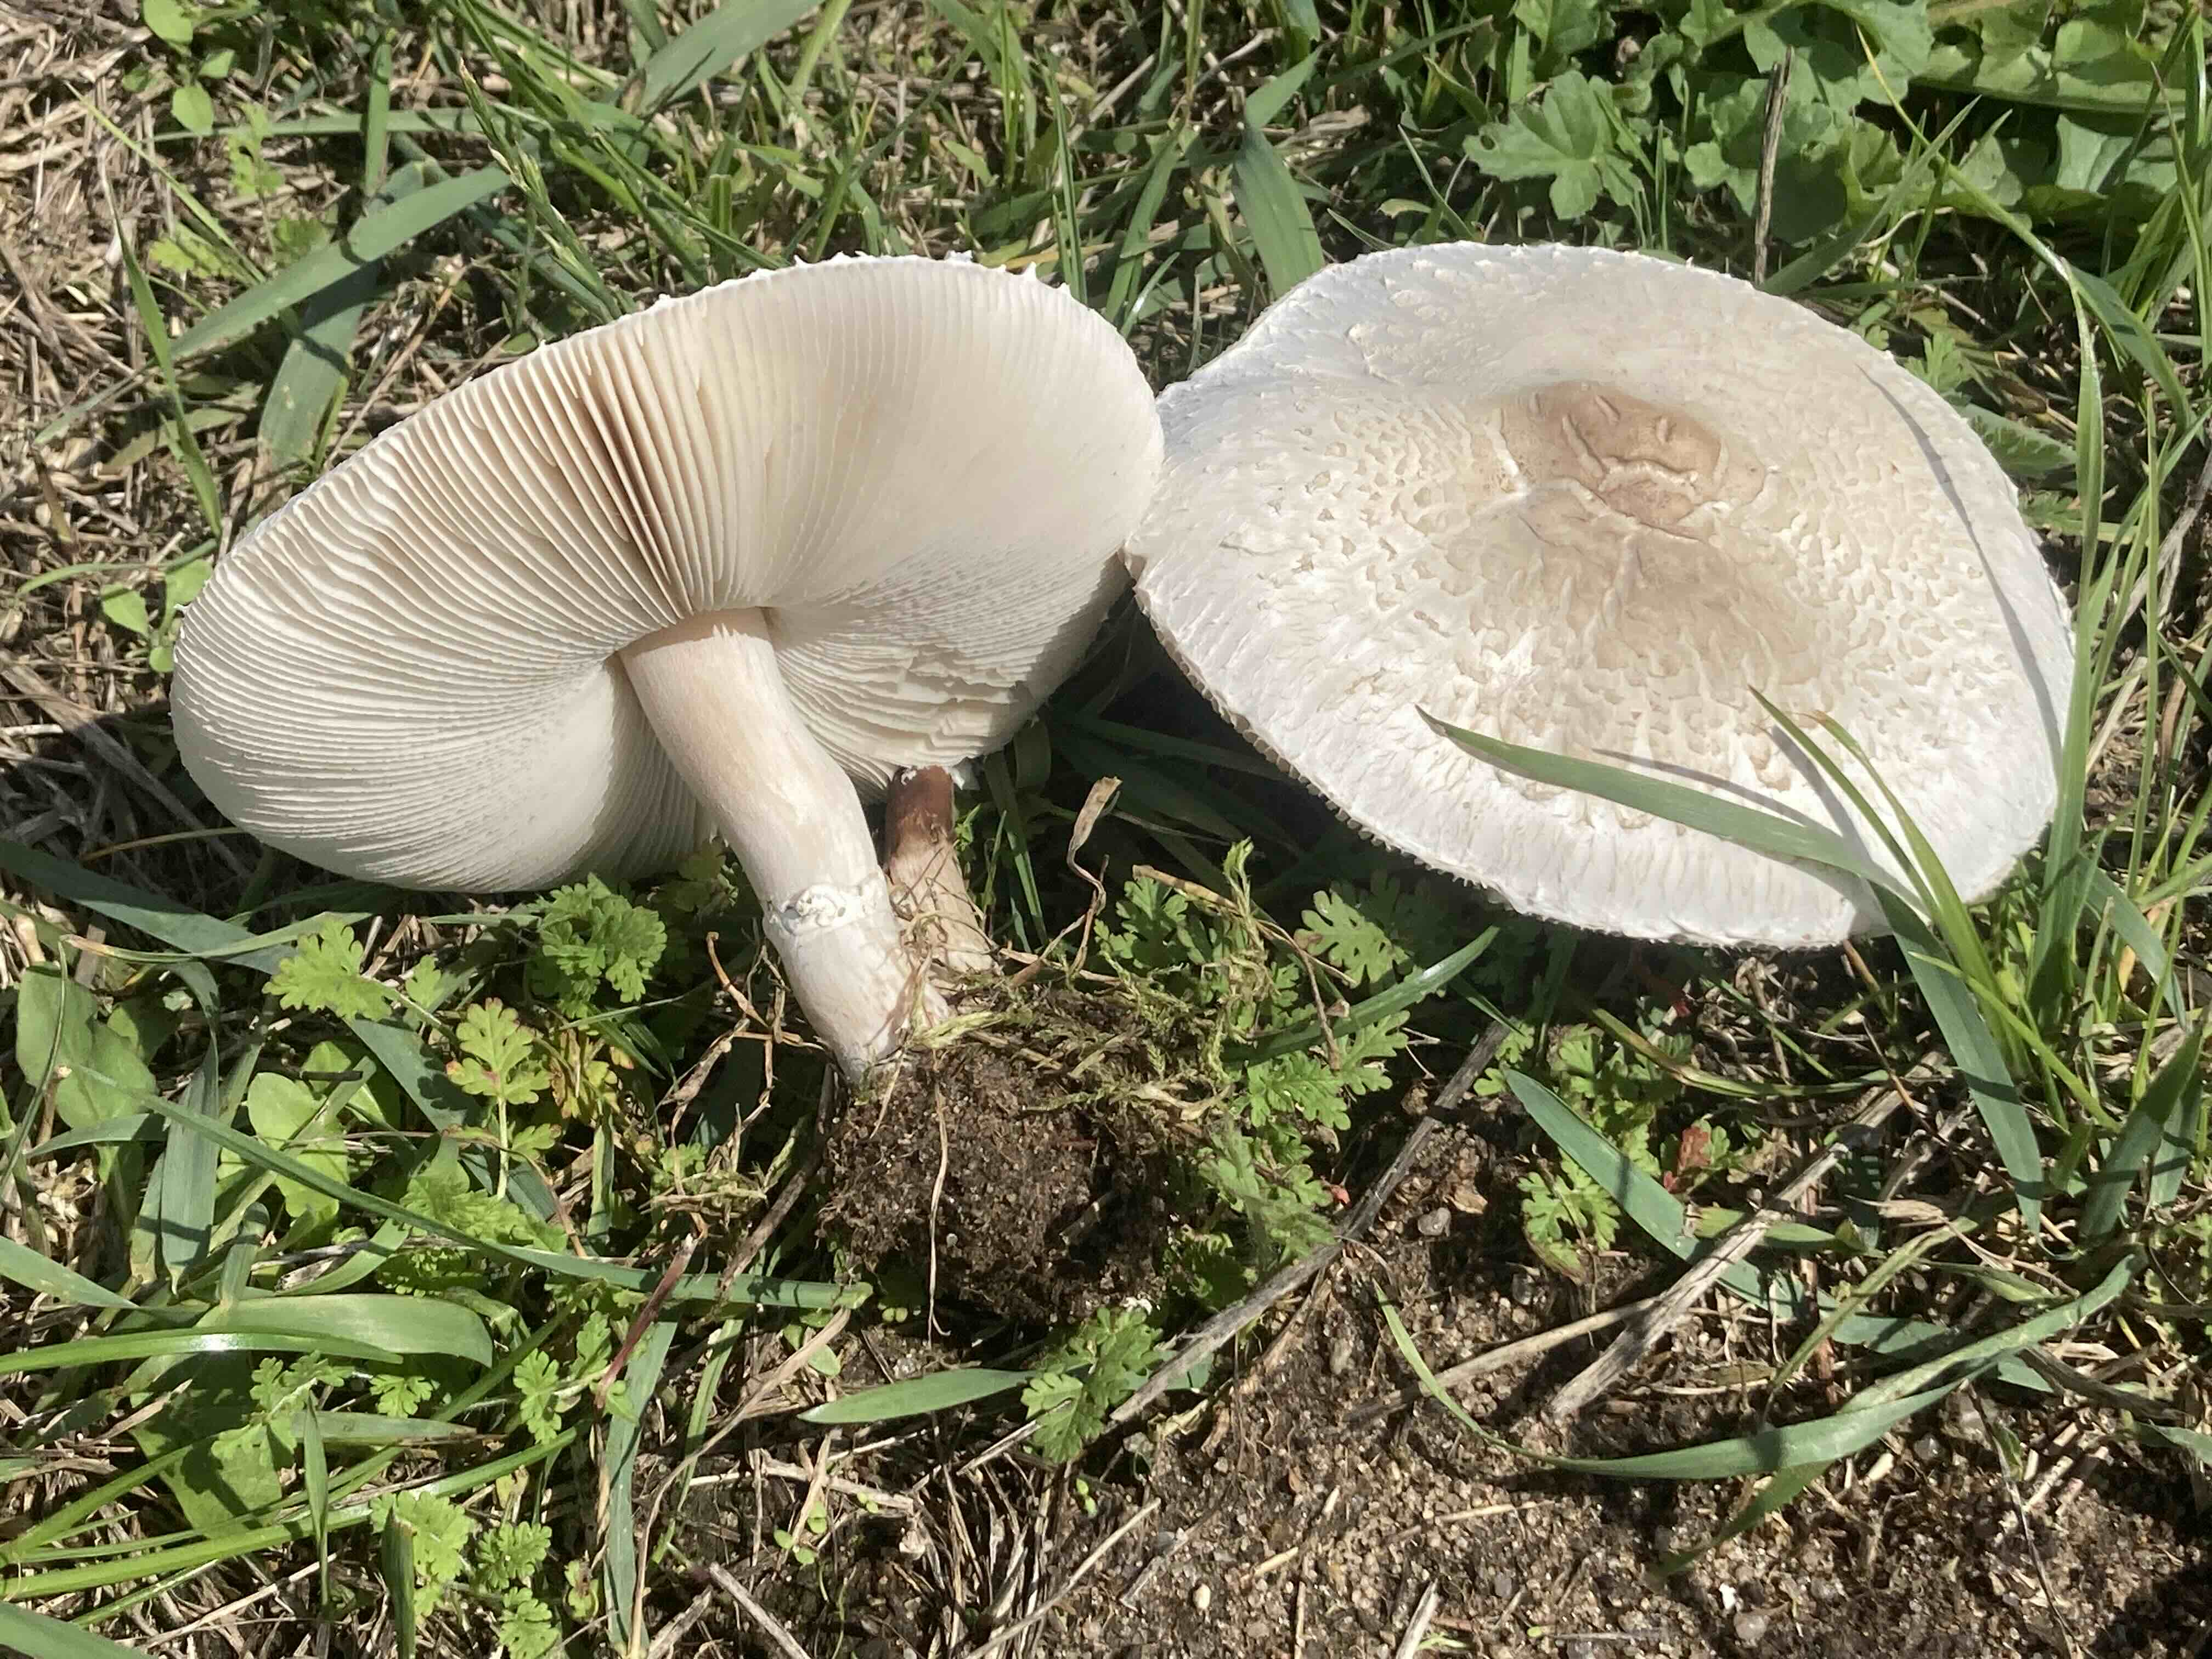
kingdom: Fungi
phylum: Basidiomycota
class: Agaricomycetes
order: Agaricales
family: Agaricaceae
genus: Macrolepiota
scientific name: Macrolepiota excoriata
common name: mark-kæmpeparasolhat
